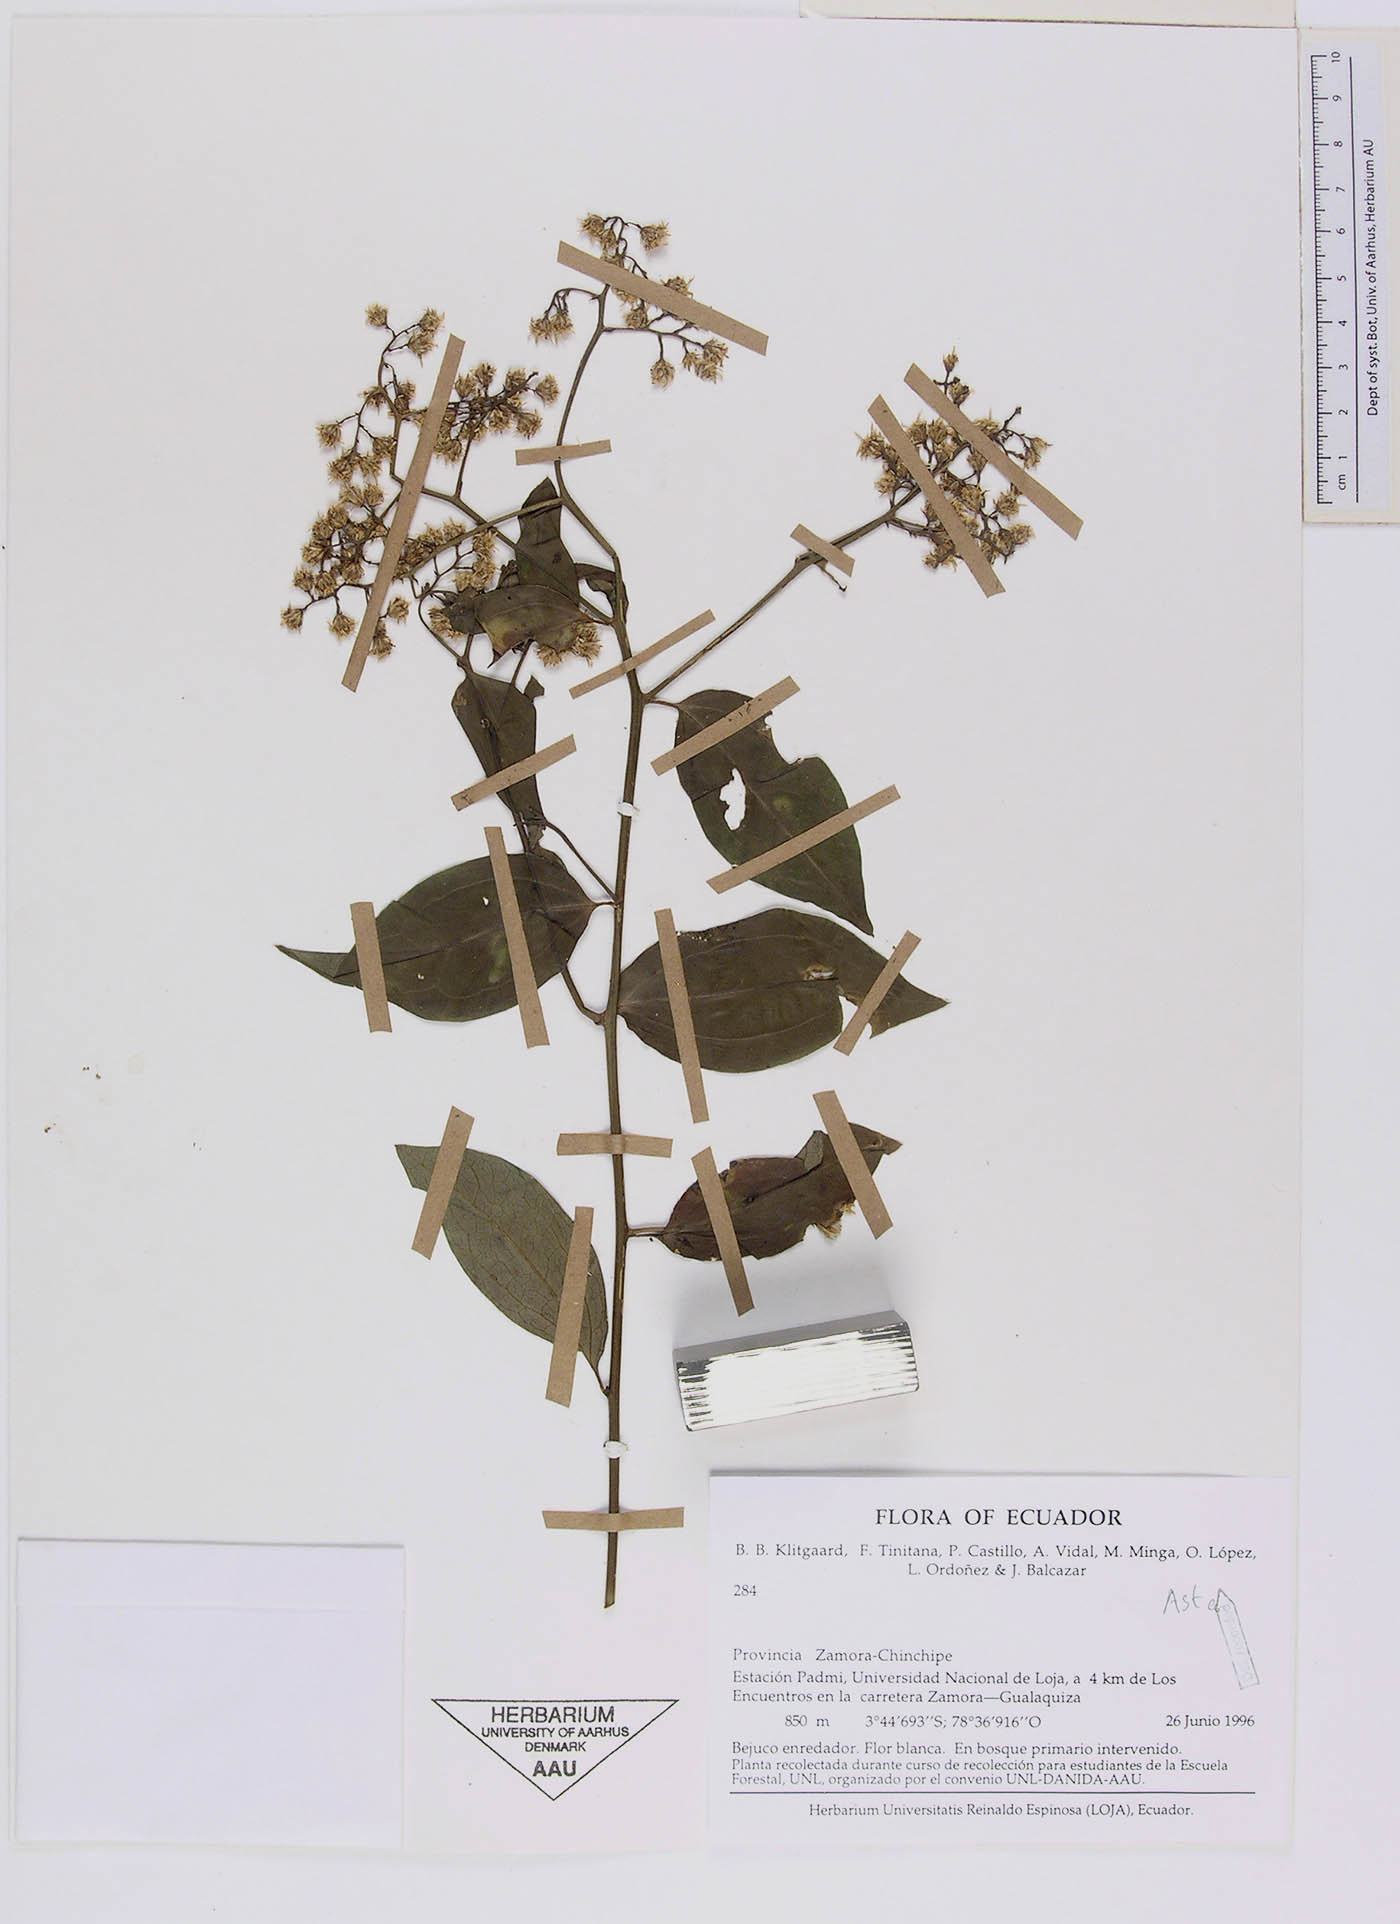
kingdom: Plantae
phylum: Tracheophyta
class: Magnoliopsida
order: Asterales
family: Asteraceae
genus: Baccharis
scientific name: Baccharis trinervis
